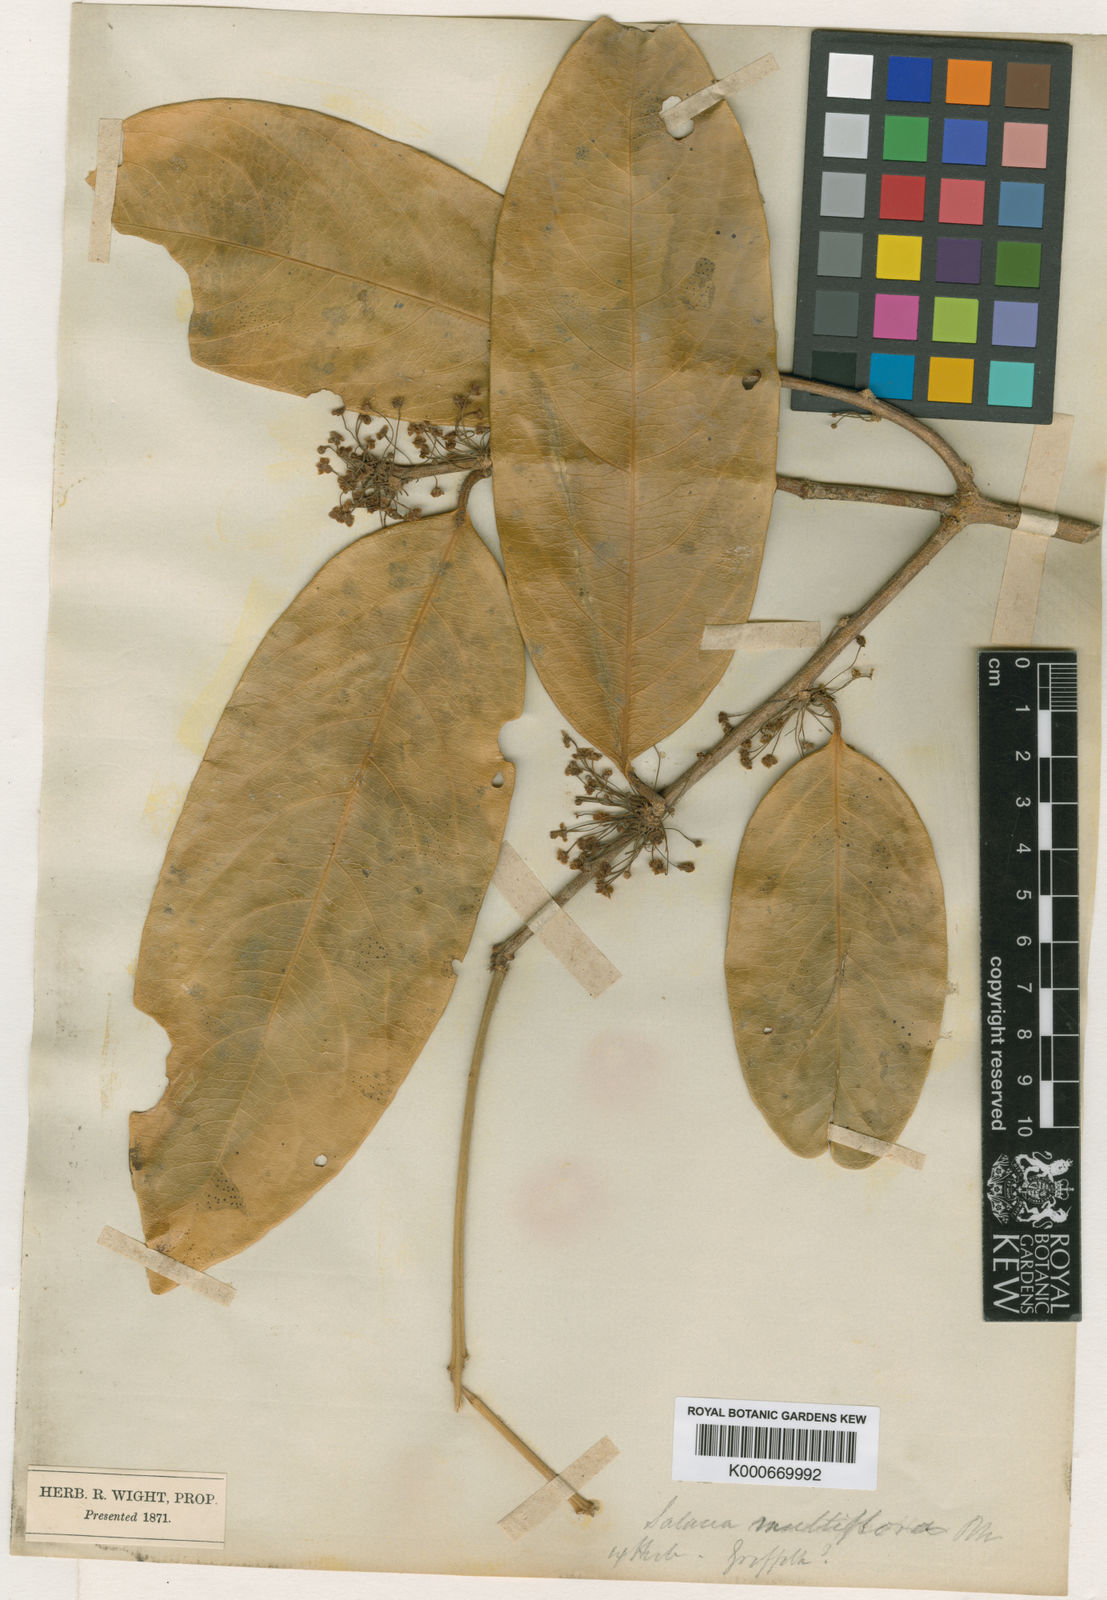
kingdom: Plantae
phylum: Tracheophyta
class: Magnoliopsida
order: Celastrales
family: Celastraceae
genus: Salacia
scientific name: Salacia multiflora
